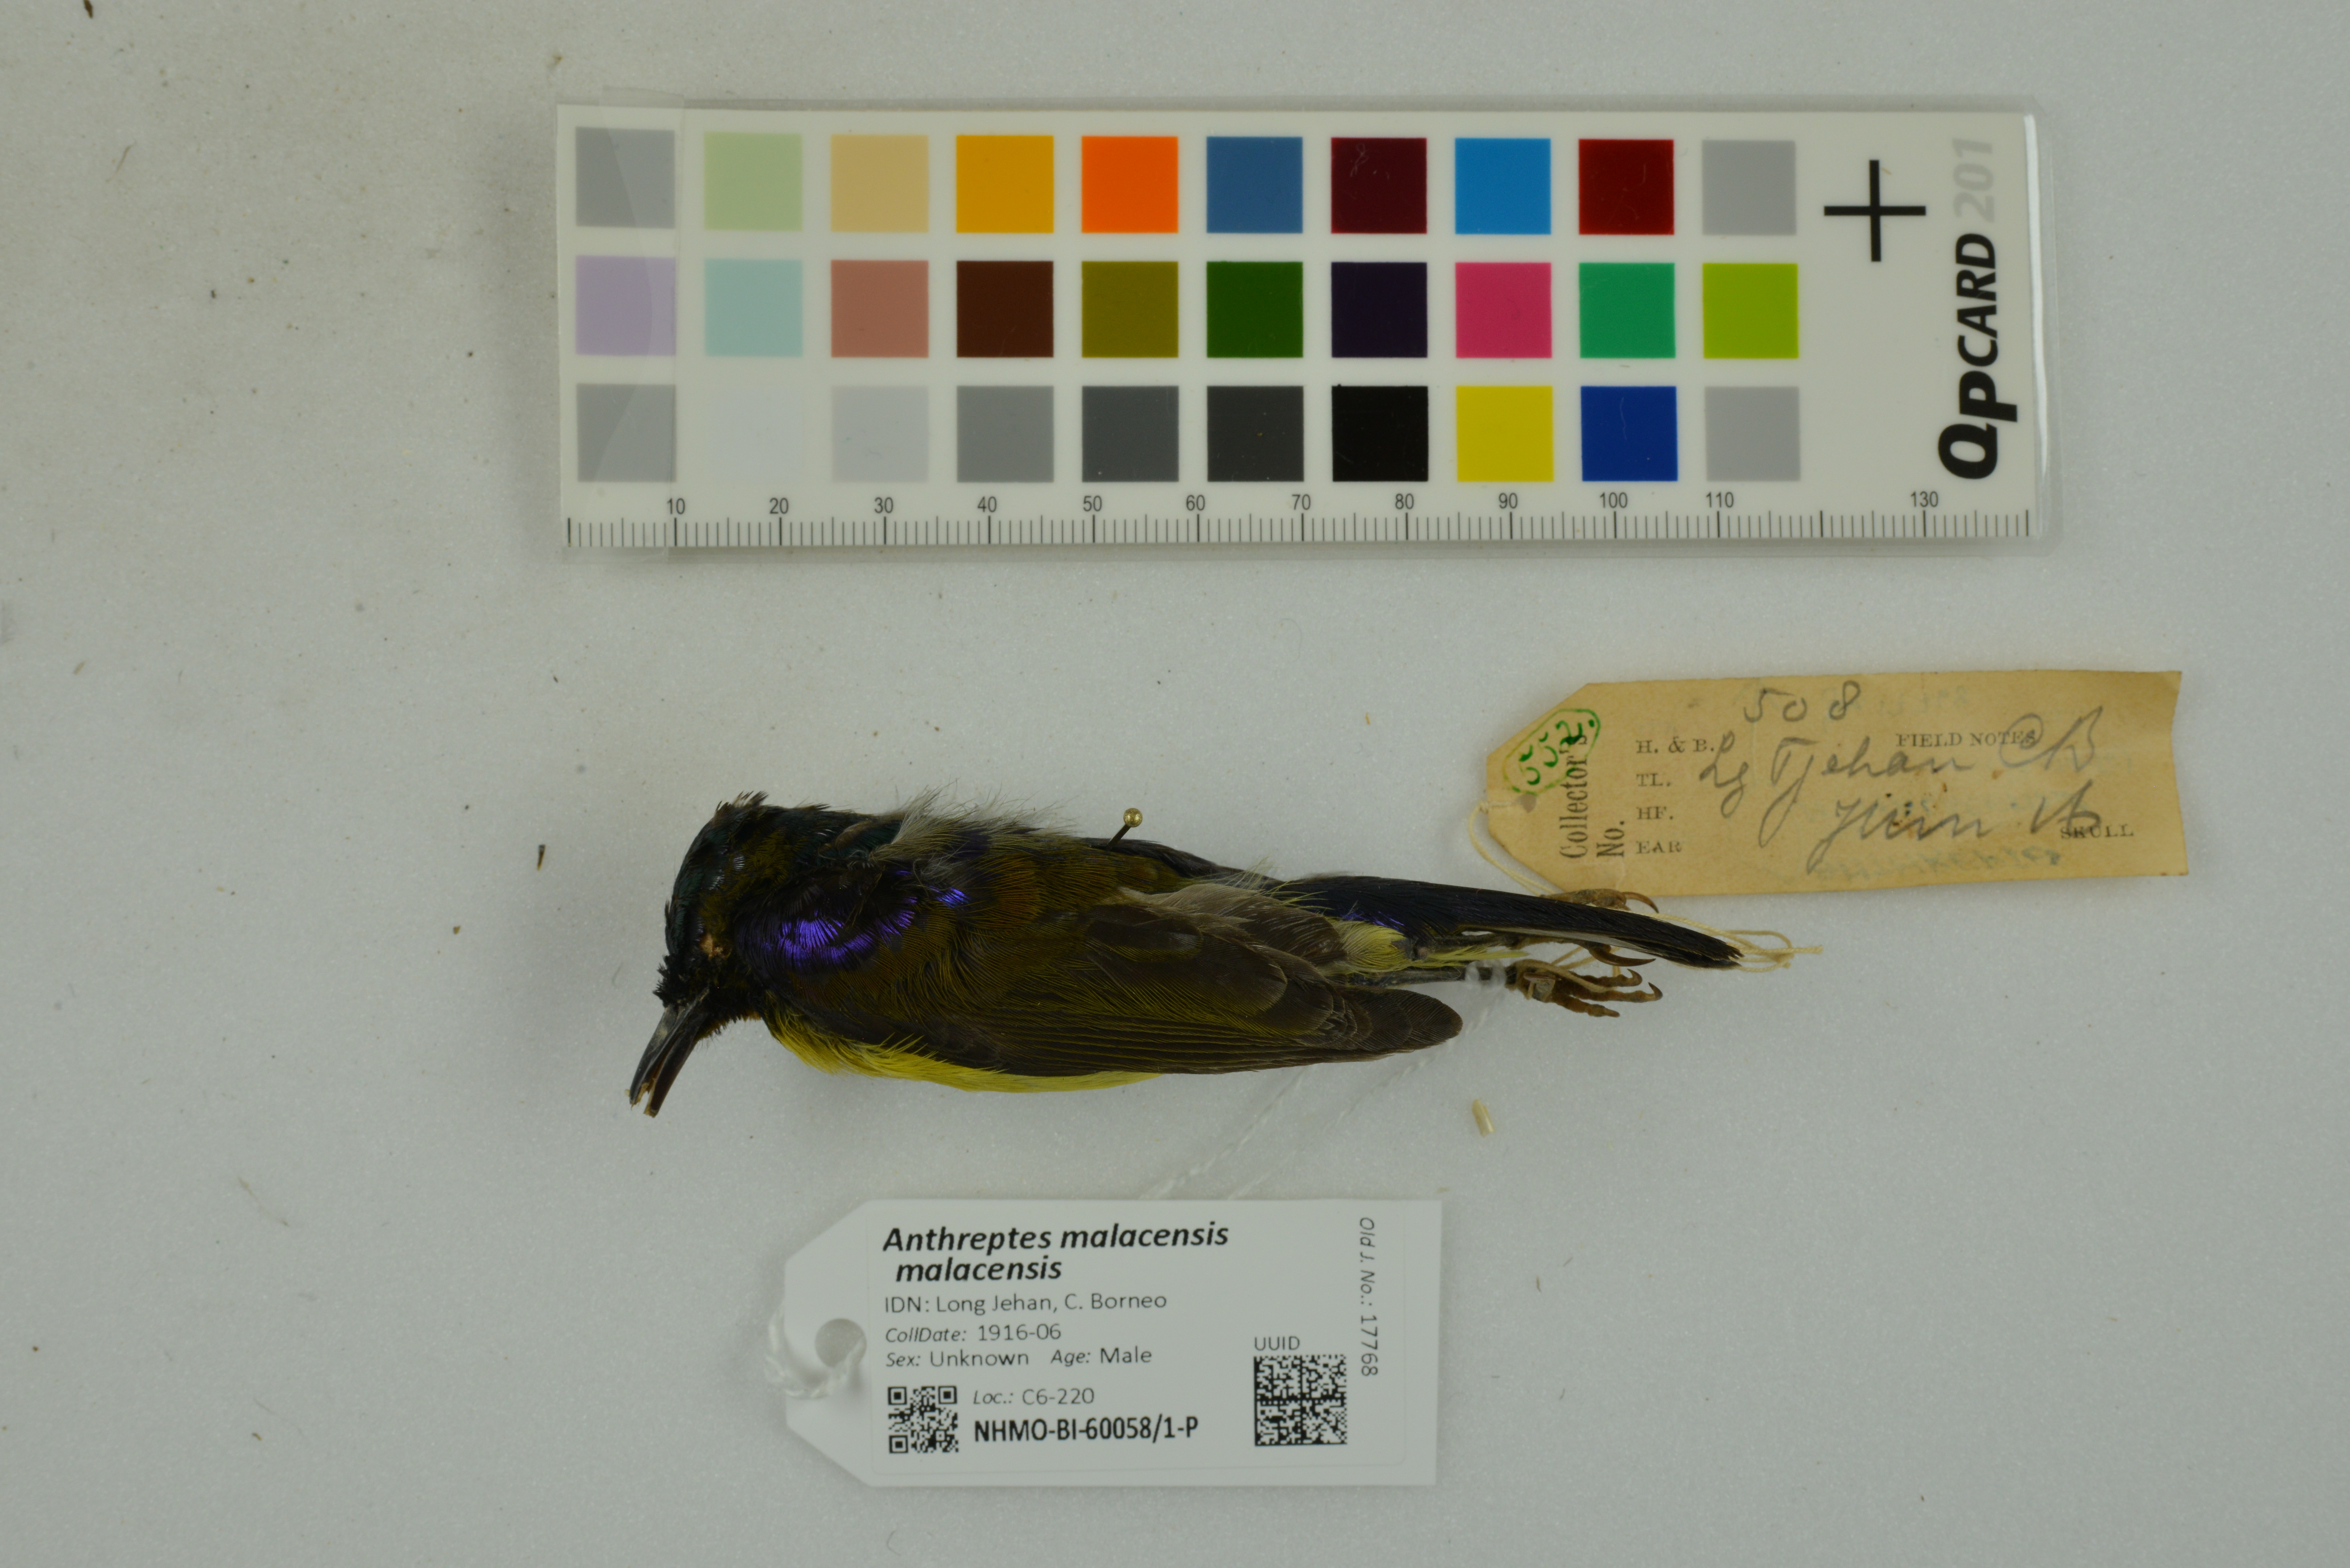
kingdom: Animalia
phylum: Chordata
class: Aves
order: Passeriformes
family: Nectariniidae
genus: Anthreptes
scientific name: Anthreptes malacensis
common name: Brown-throated sunbird
